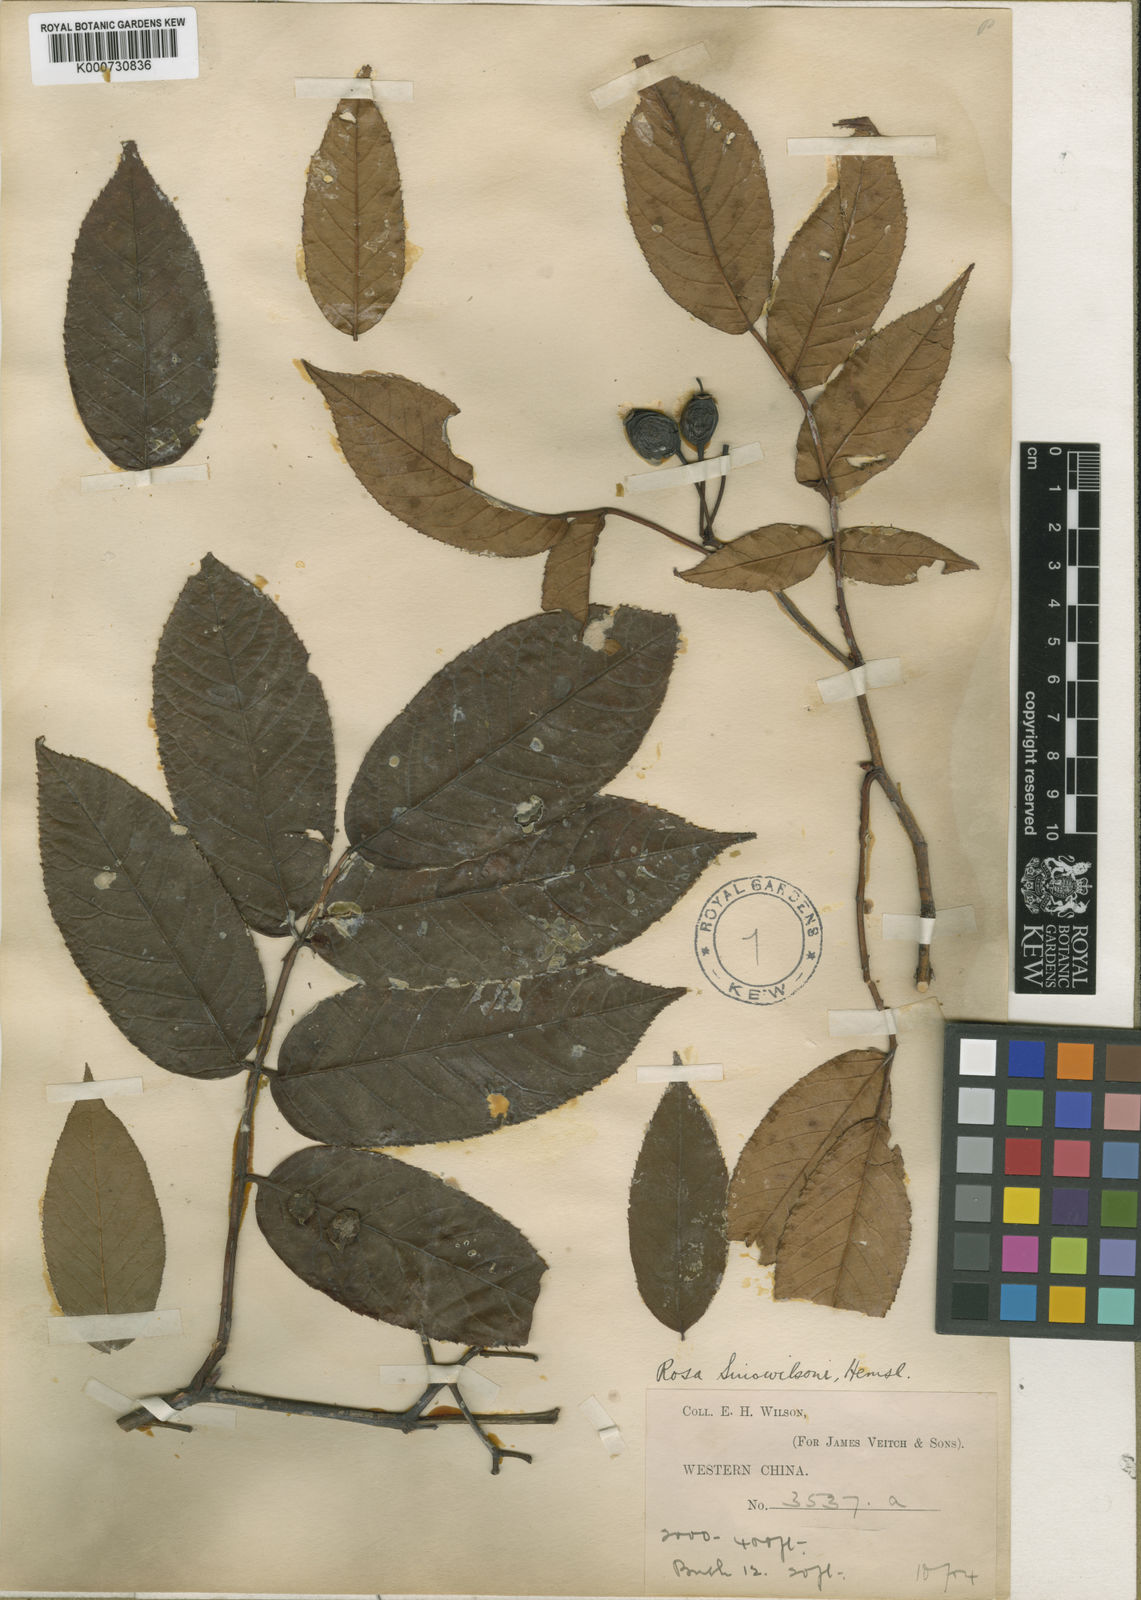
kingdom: Plantae
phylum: Tracheophyta
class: Magnoliopsida
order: Rosales
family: Rosaceae
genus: Rosa
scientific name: Rosa longicuspis
